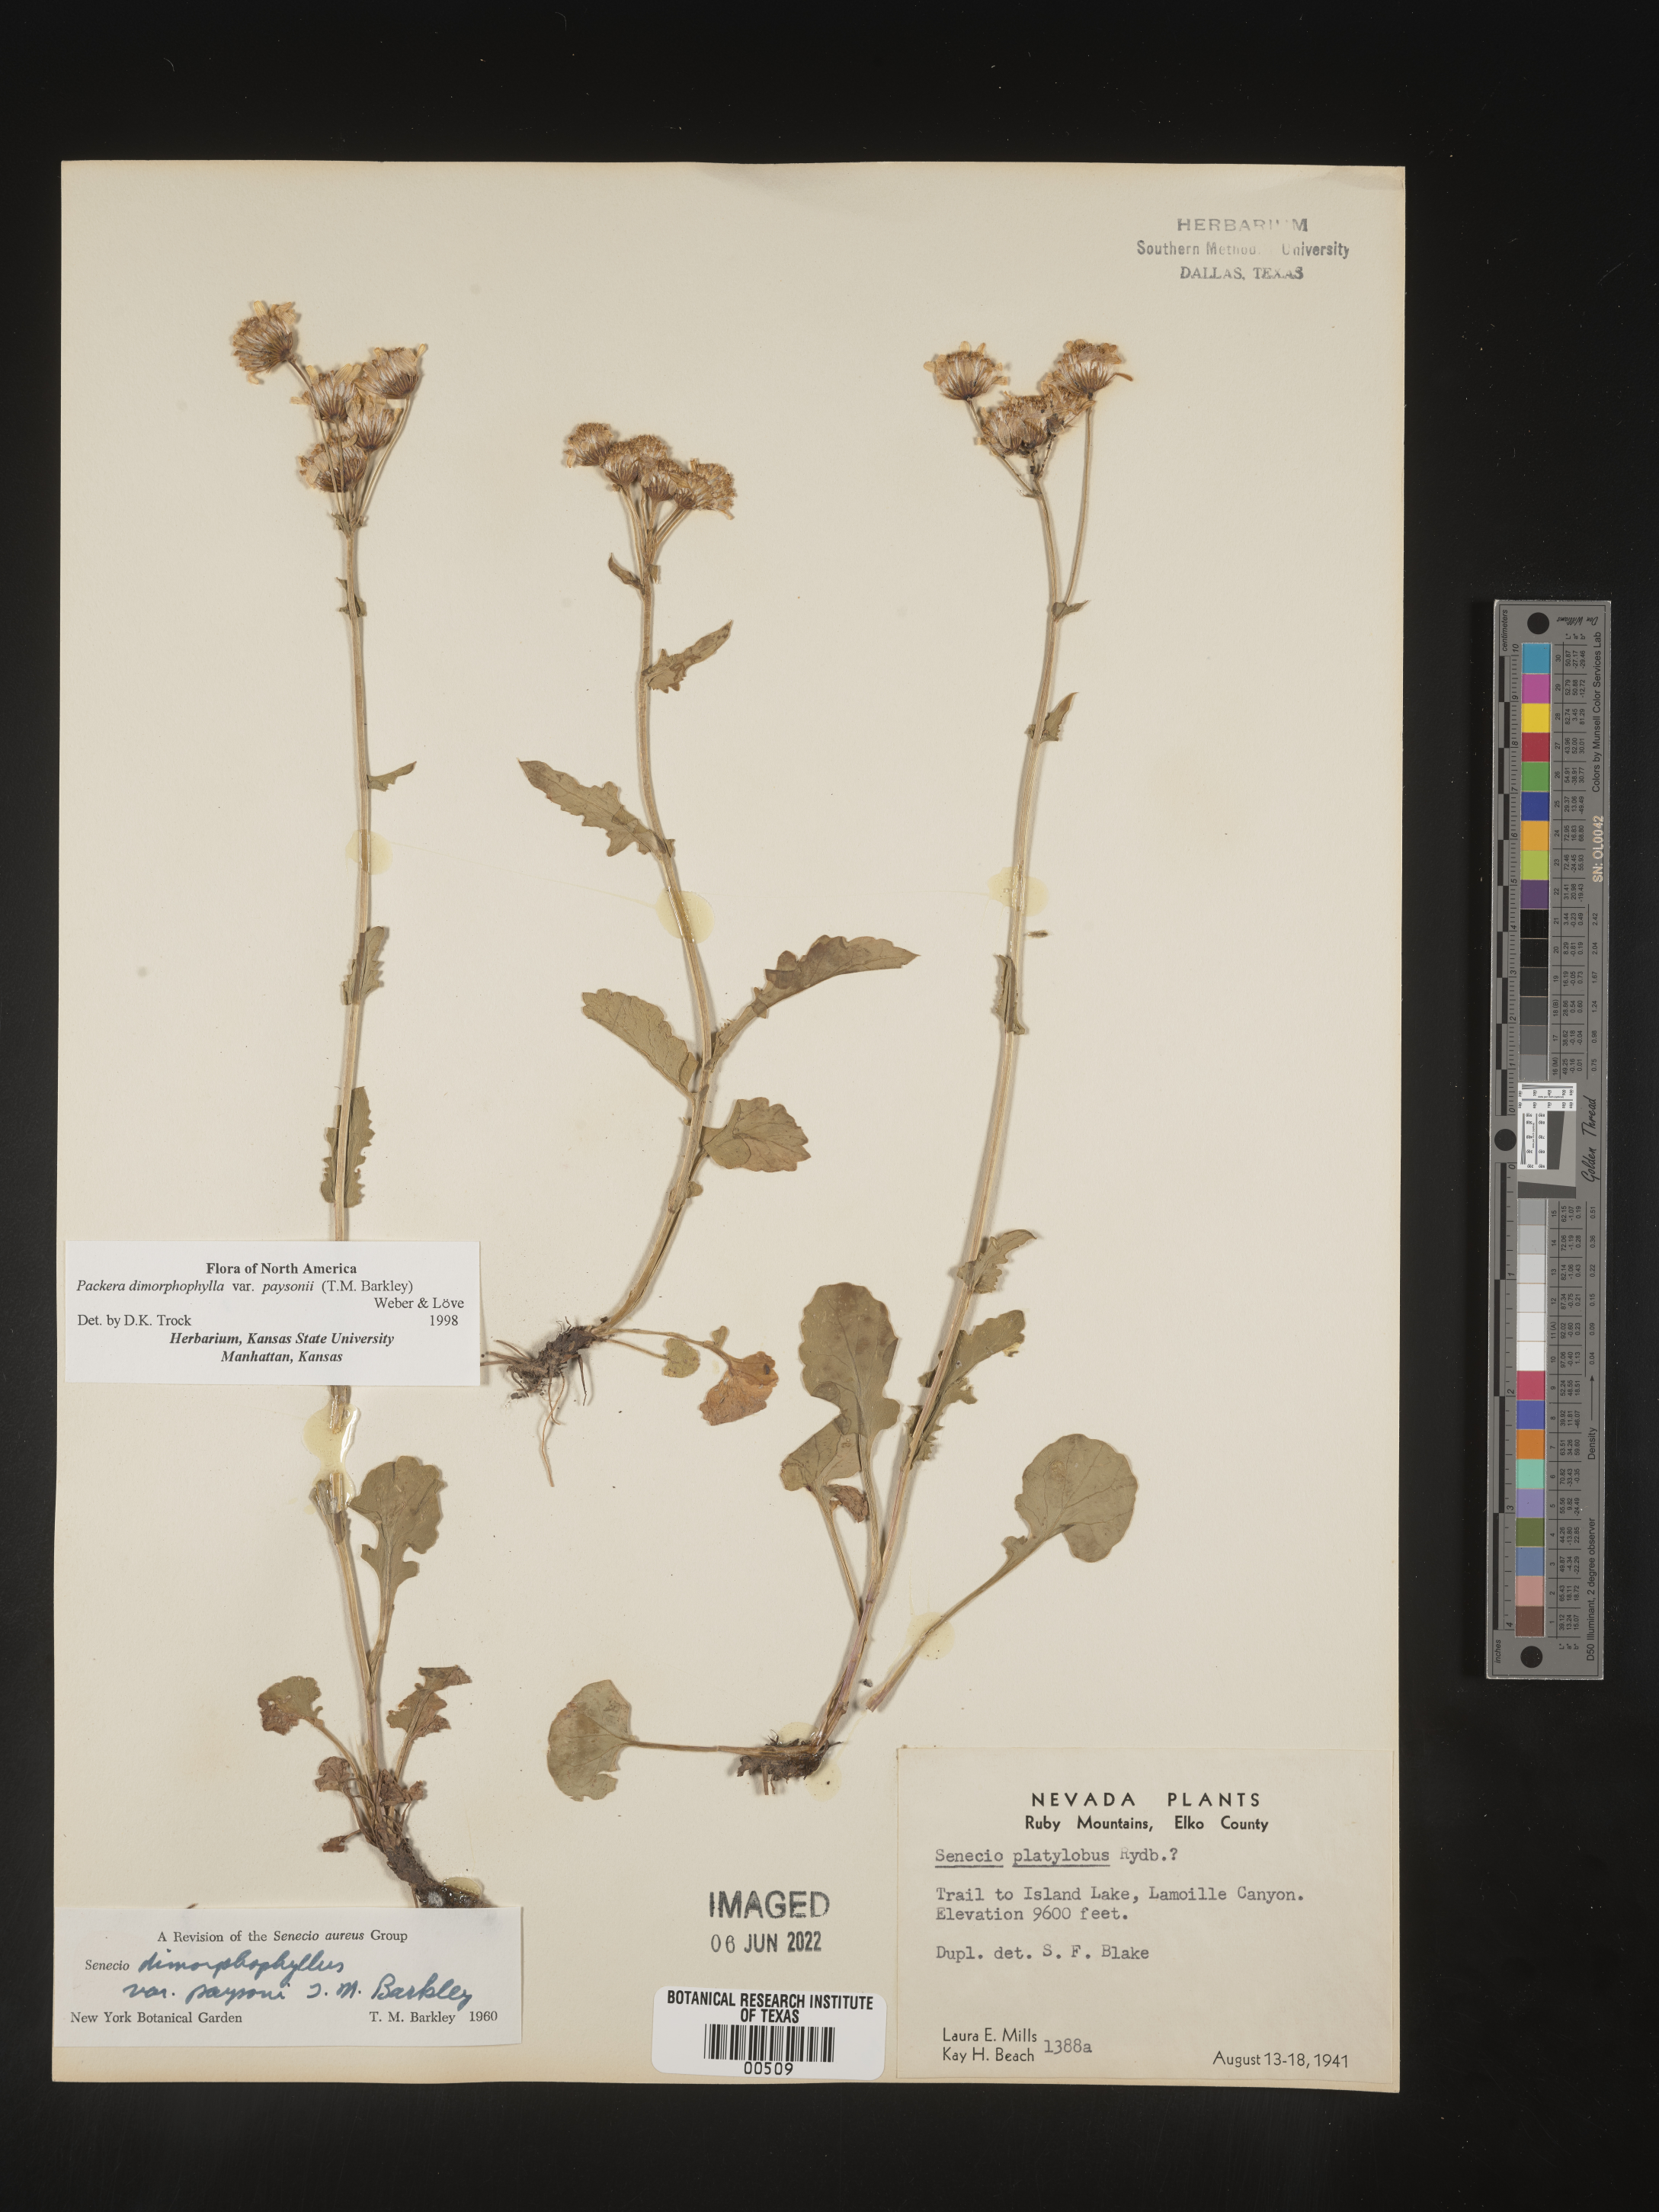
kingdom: Plantae
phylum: Tracheophyta
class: Magnoliopsida
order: Asterales
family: Asteraceae
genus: Packera
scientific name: Packera dimorphophylla
